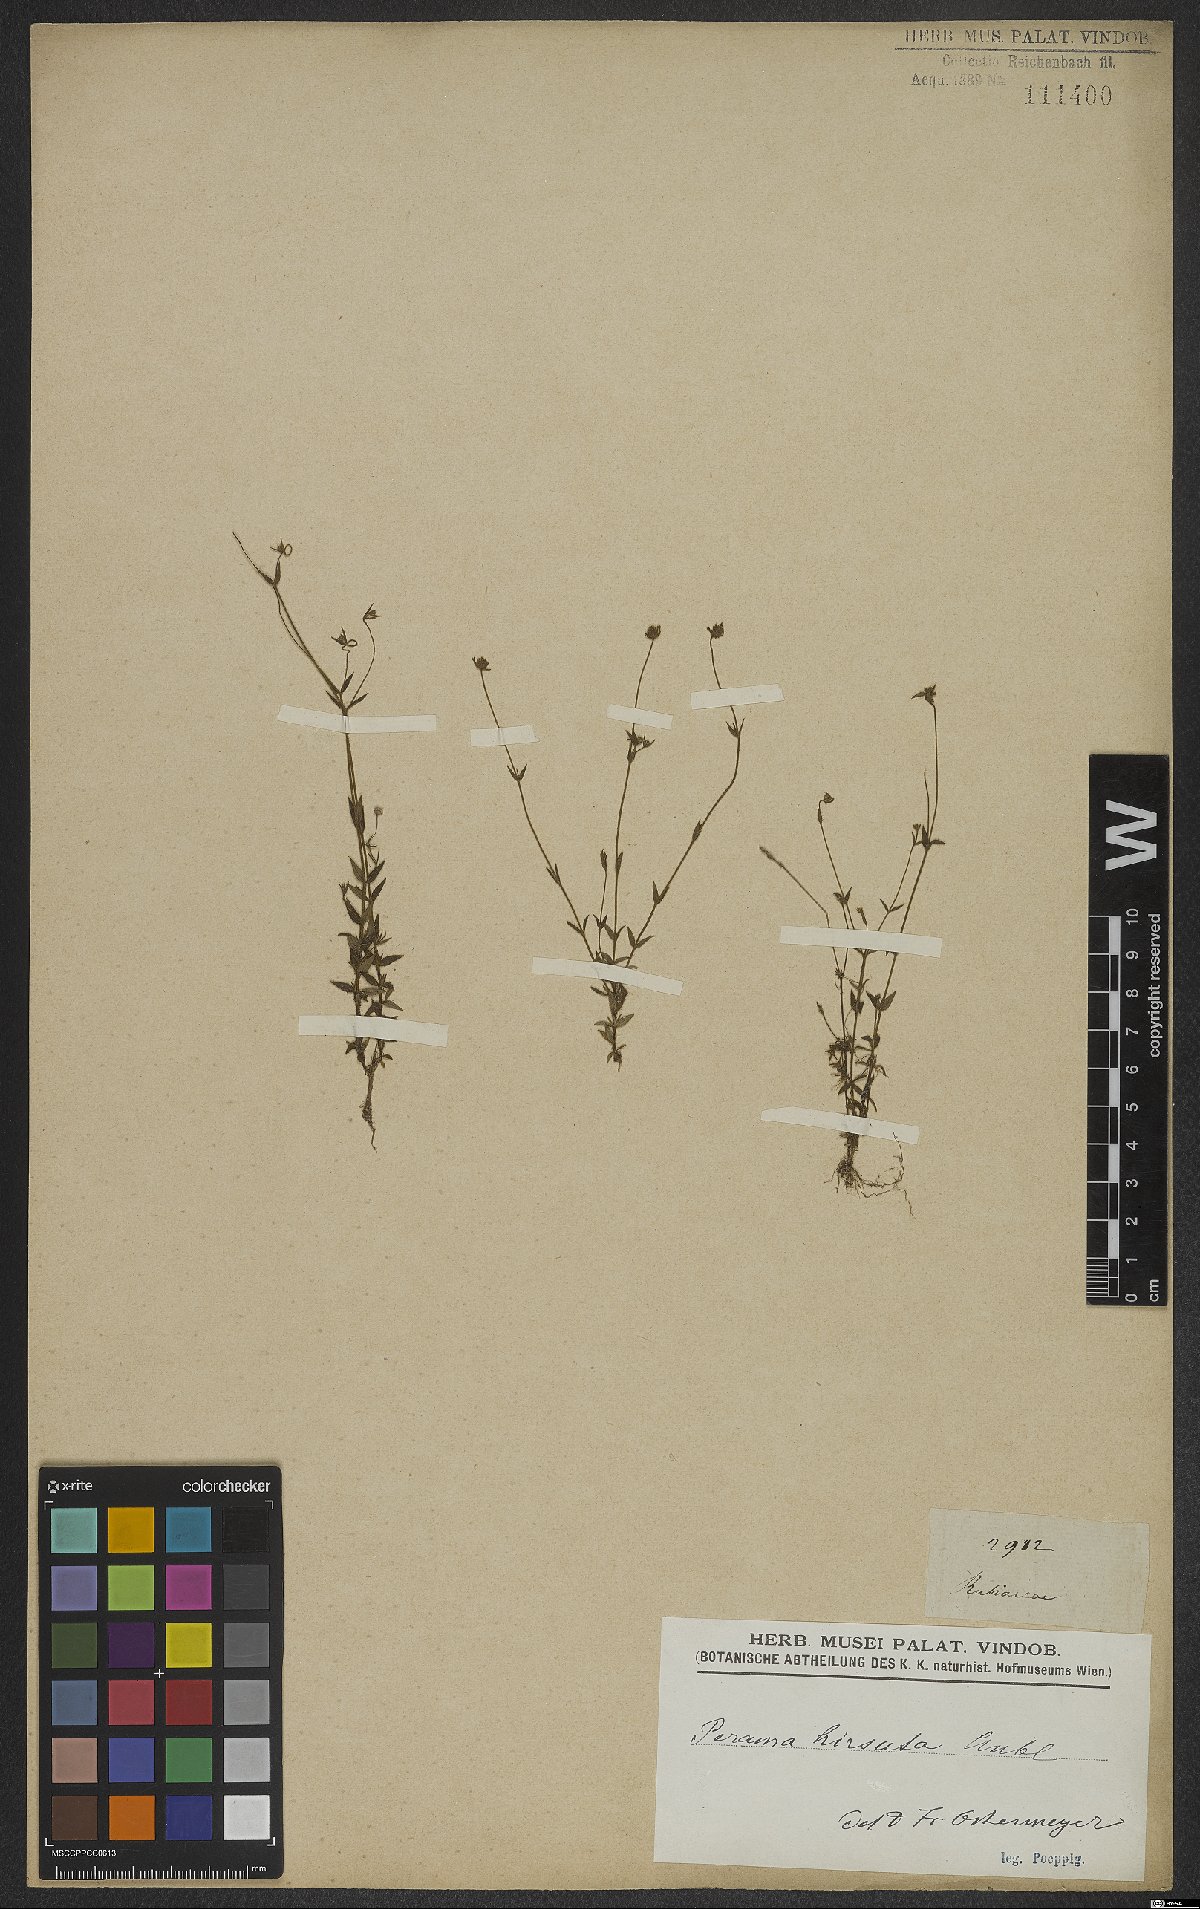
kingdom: Plantae
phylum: Tracheophyta
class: Magnoliopsida
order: Gentianales
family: Rubiaceae
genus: Perama
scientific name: Perama hirsuta
